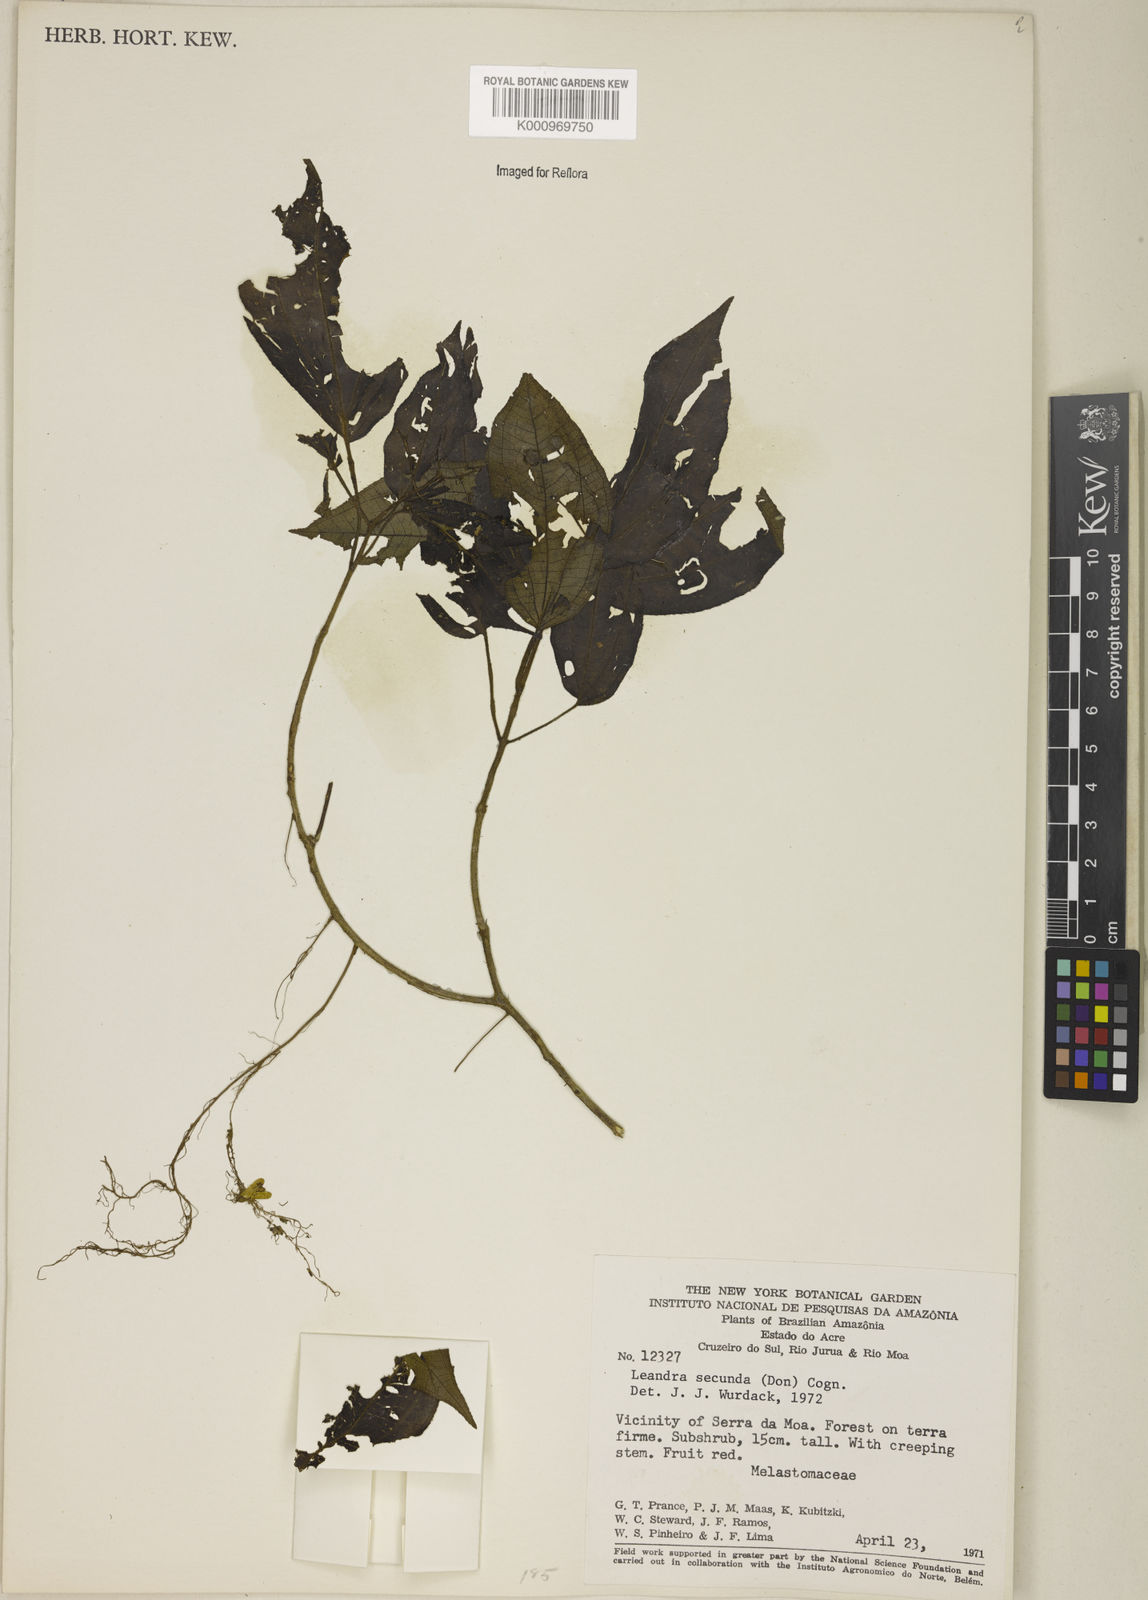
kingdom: Plantae
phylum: Tracheophyta
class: Magnoliopsida
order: Myrtales
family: Melastomataceae
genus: Miconia
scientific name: Miconia neosecunda
